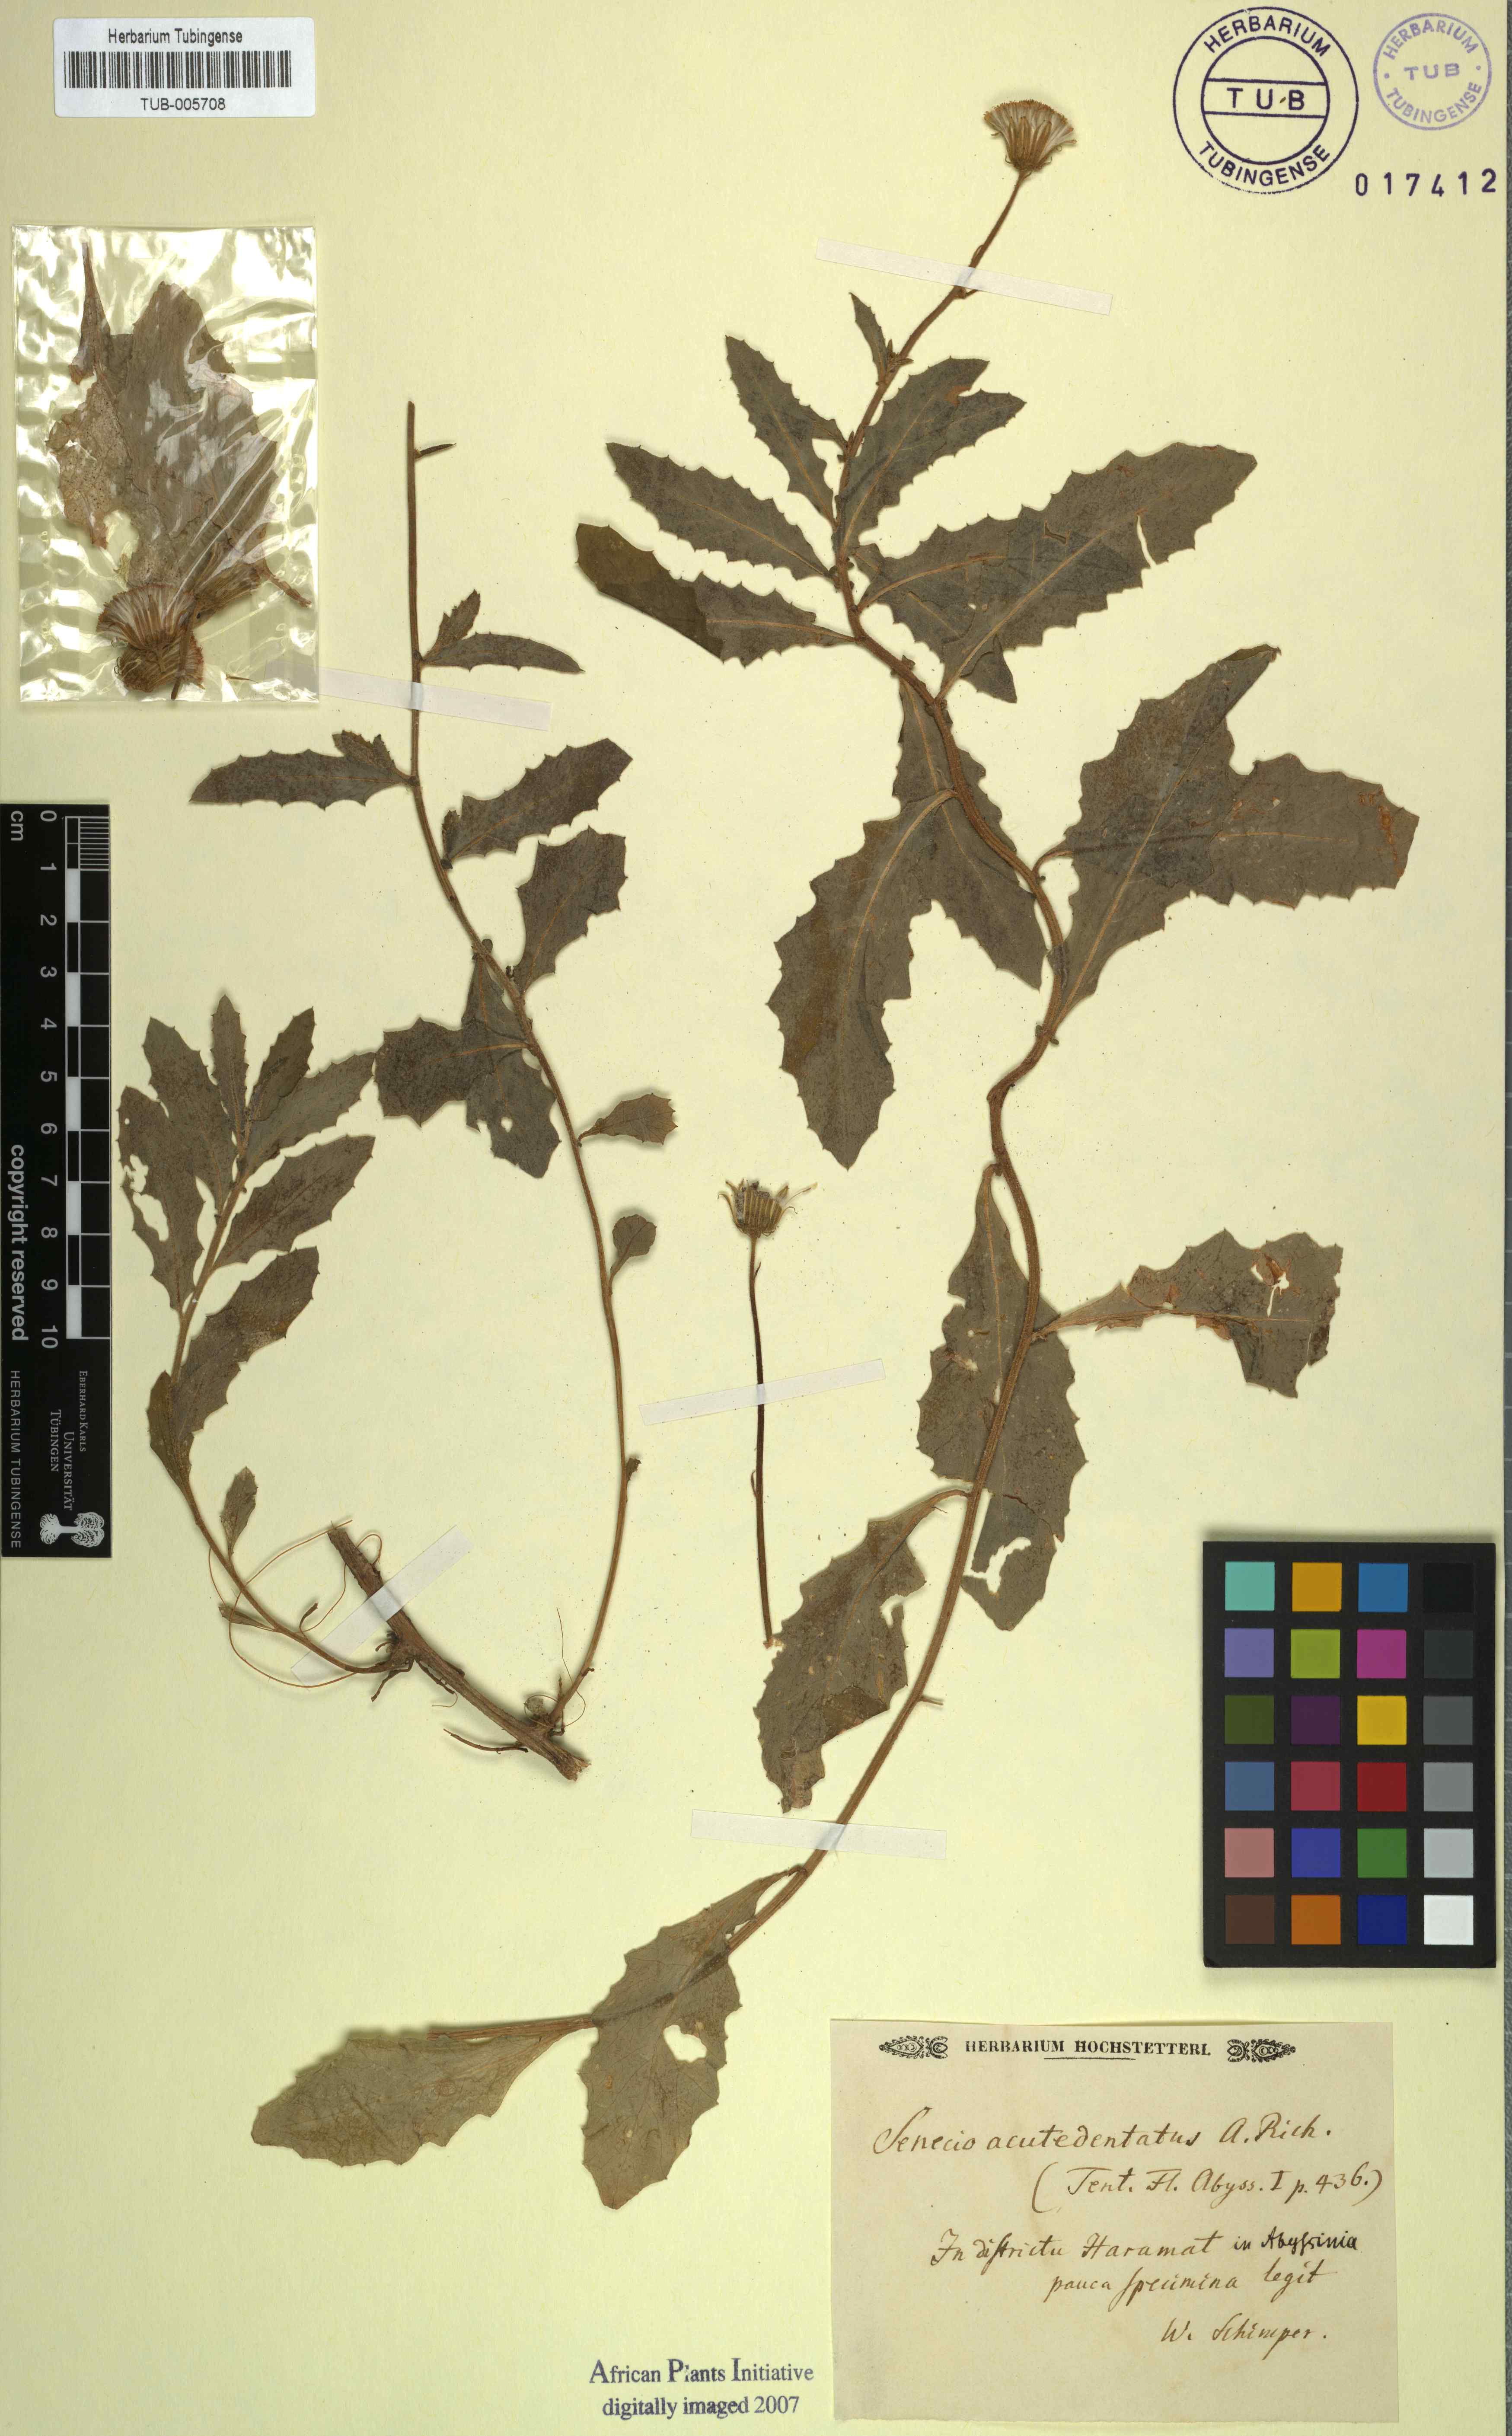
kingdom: Plantae
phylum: Tracheophyta
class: Magnoliopsida
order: Asterales
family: Asteraceae
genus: Crassocephalum
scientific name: Crassocephalum picridifolium
